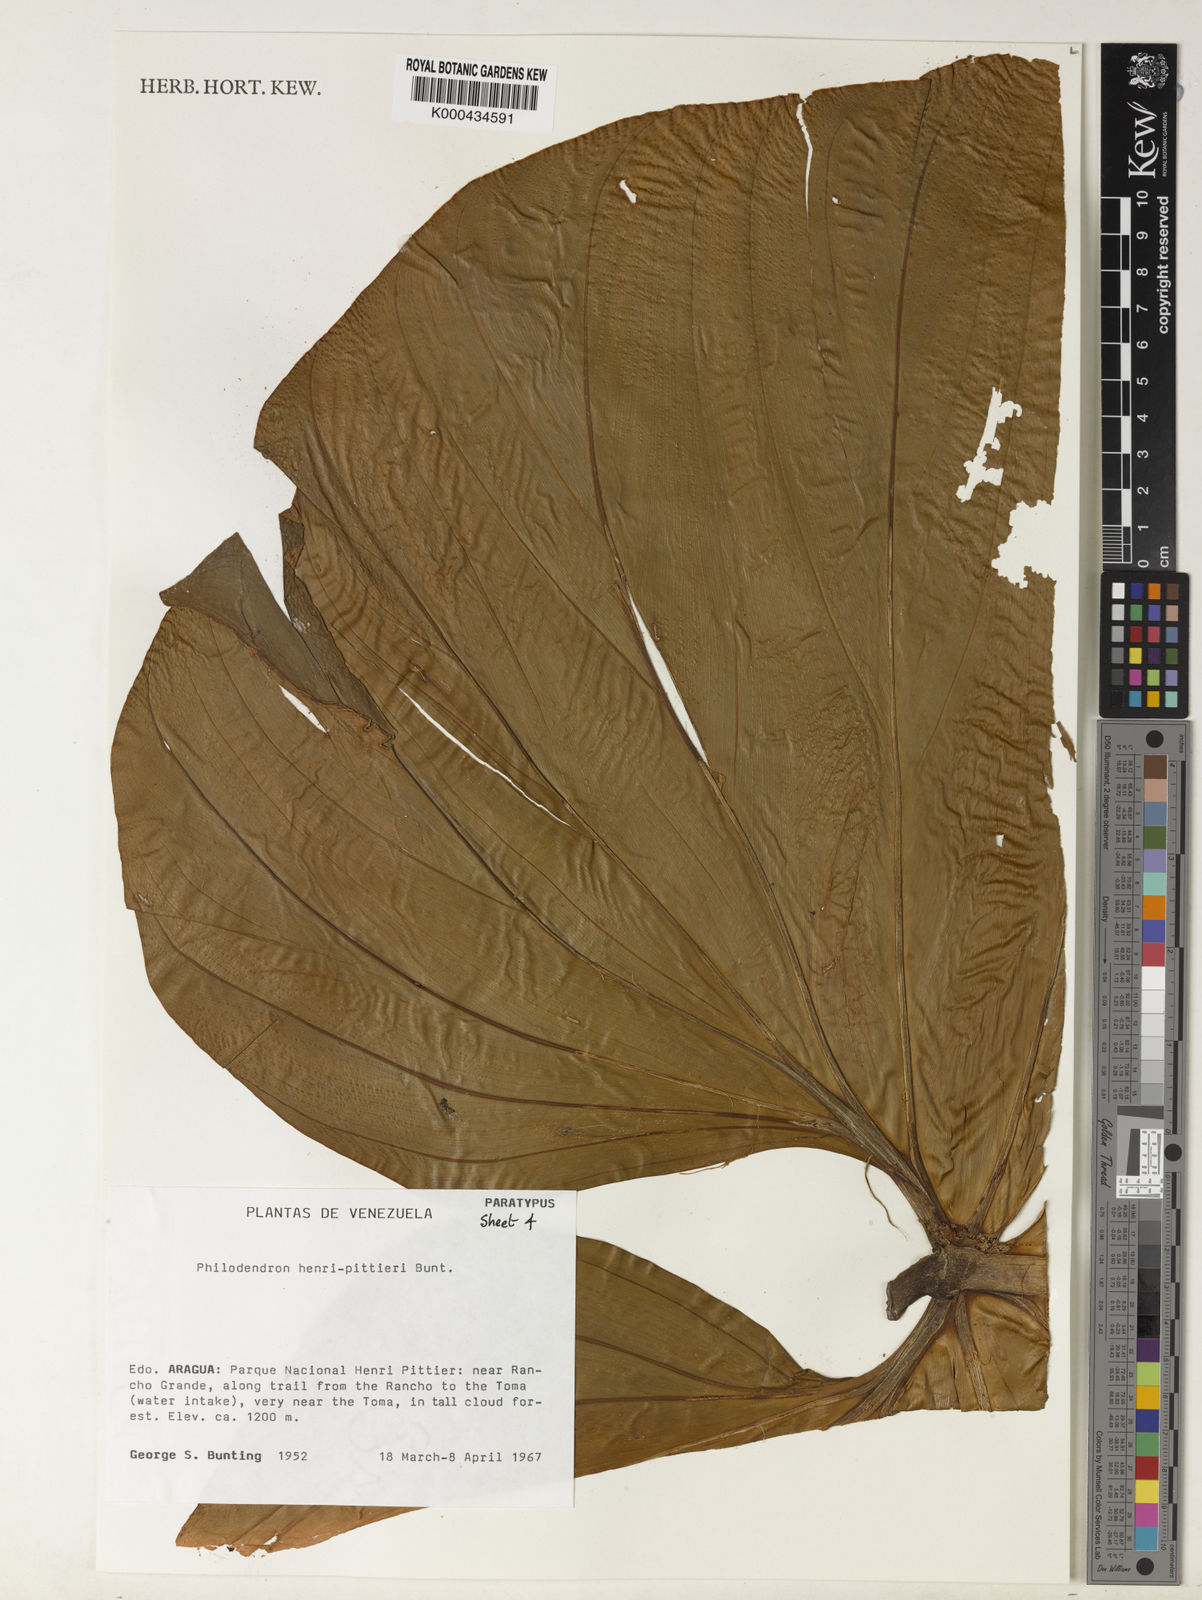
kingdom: Plantae
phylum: Tracheophyta
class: Liliopsida
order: Alismatales
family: Araceae
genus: Philodendron
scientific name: Philodendron henry-pittieri
